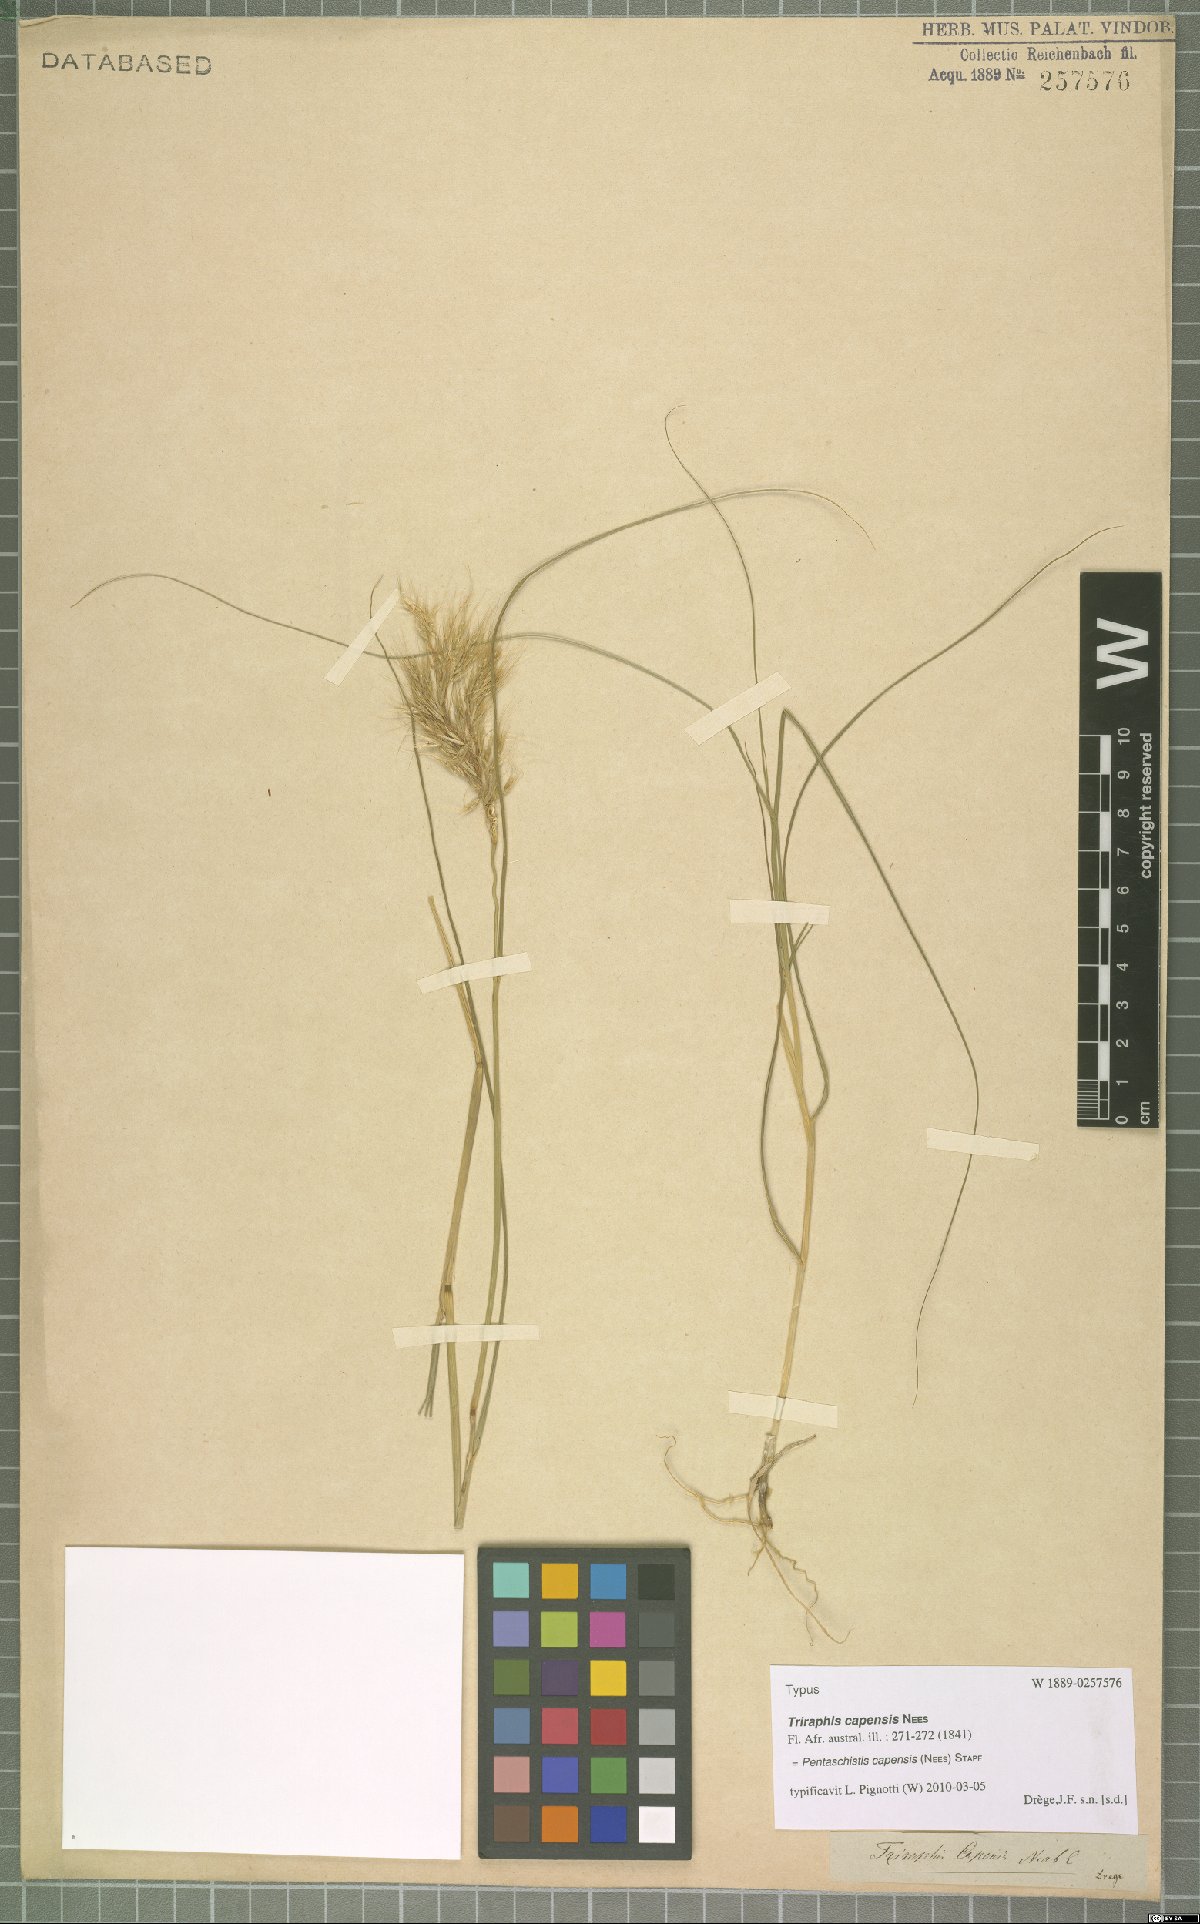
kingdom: Plantae
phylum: Tracheophyta
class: Liliopsida
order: Poales
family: Poaceae
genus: Pentameris
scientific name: Pentameris capensis
